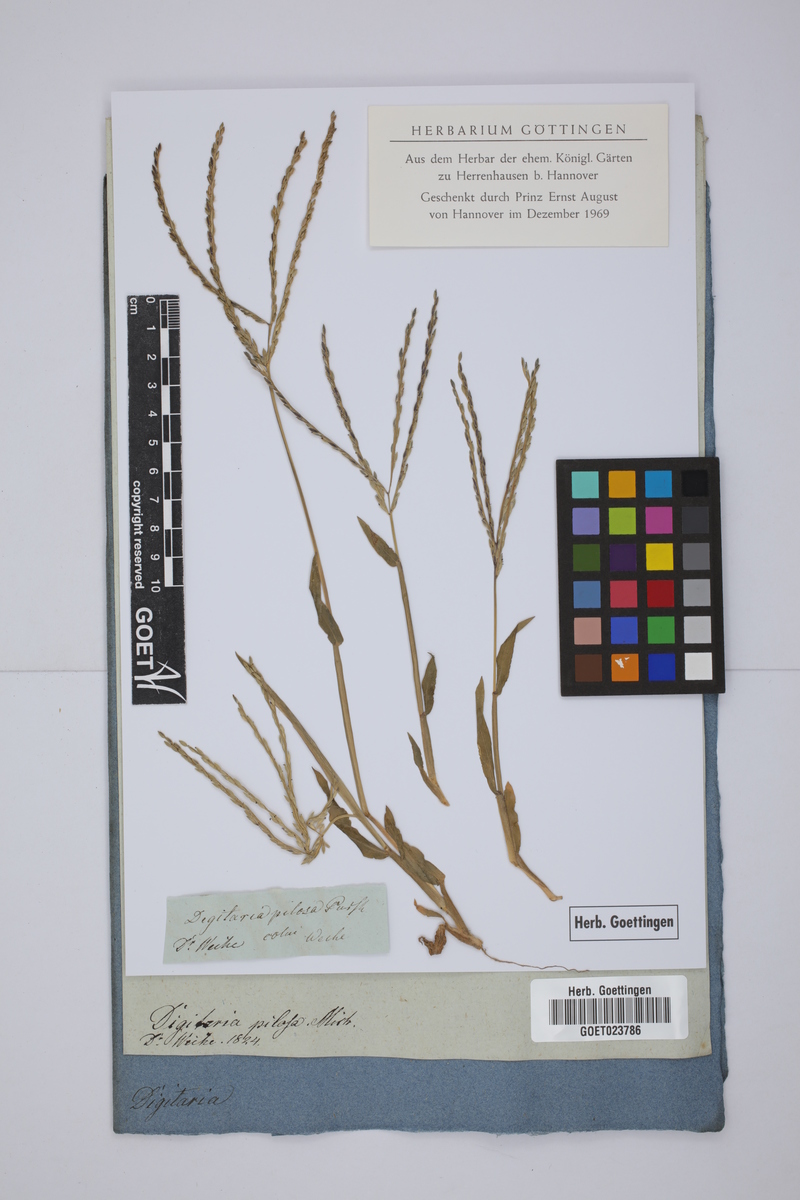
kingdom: Plantae
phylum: Tracheophyta
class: Liliopsida
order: Poales
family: Poaceae
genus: Digitaria
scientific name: Digitaria villosa
